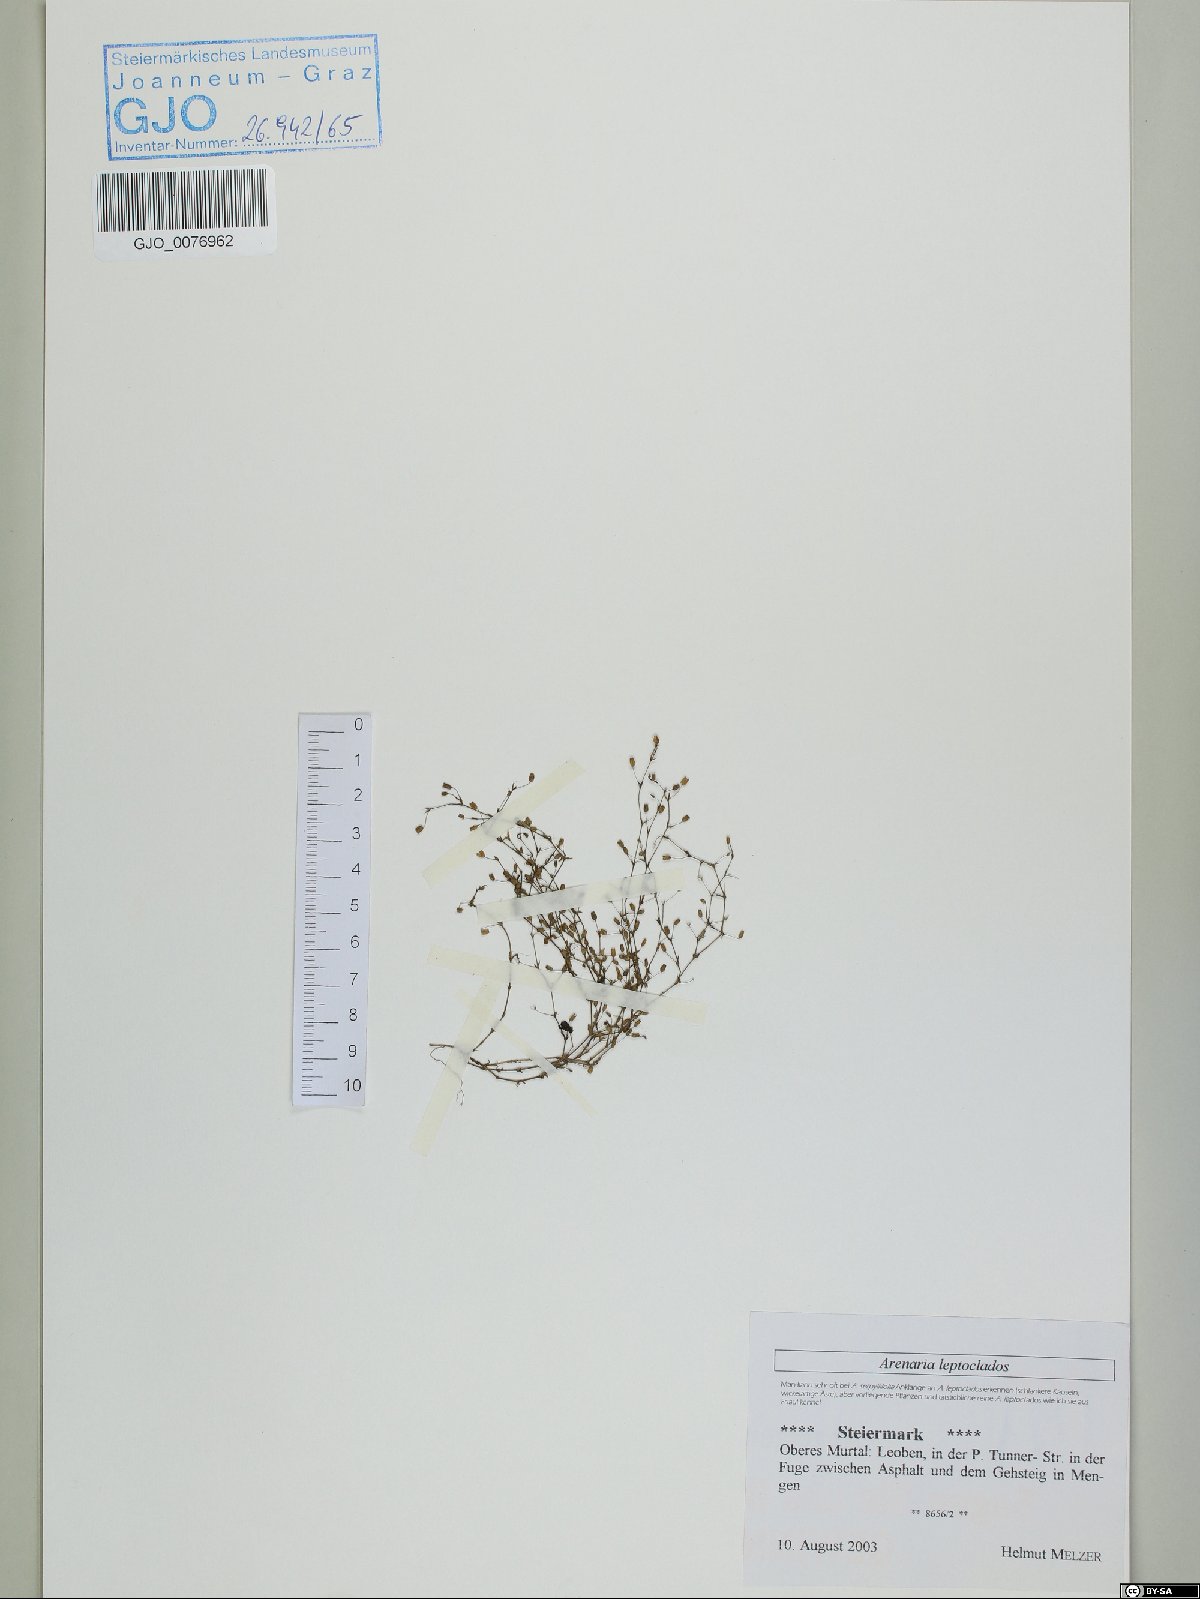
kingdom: Plantae
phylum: Tracheophyta
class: Magnoliopsida
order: Caryophyllales
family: Caryophyllaceae
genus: Arenaria
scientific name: Arenaria leptoclados
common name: Thyme-leaved sandwort
